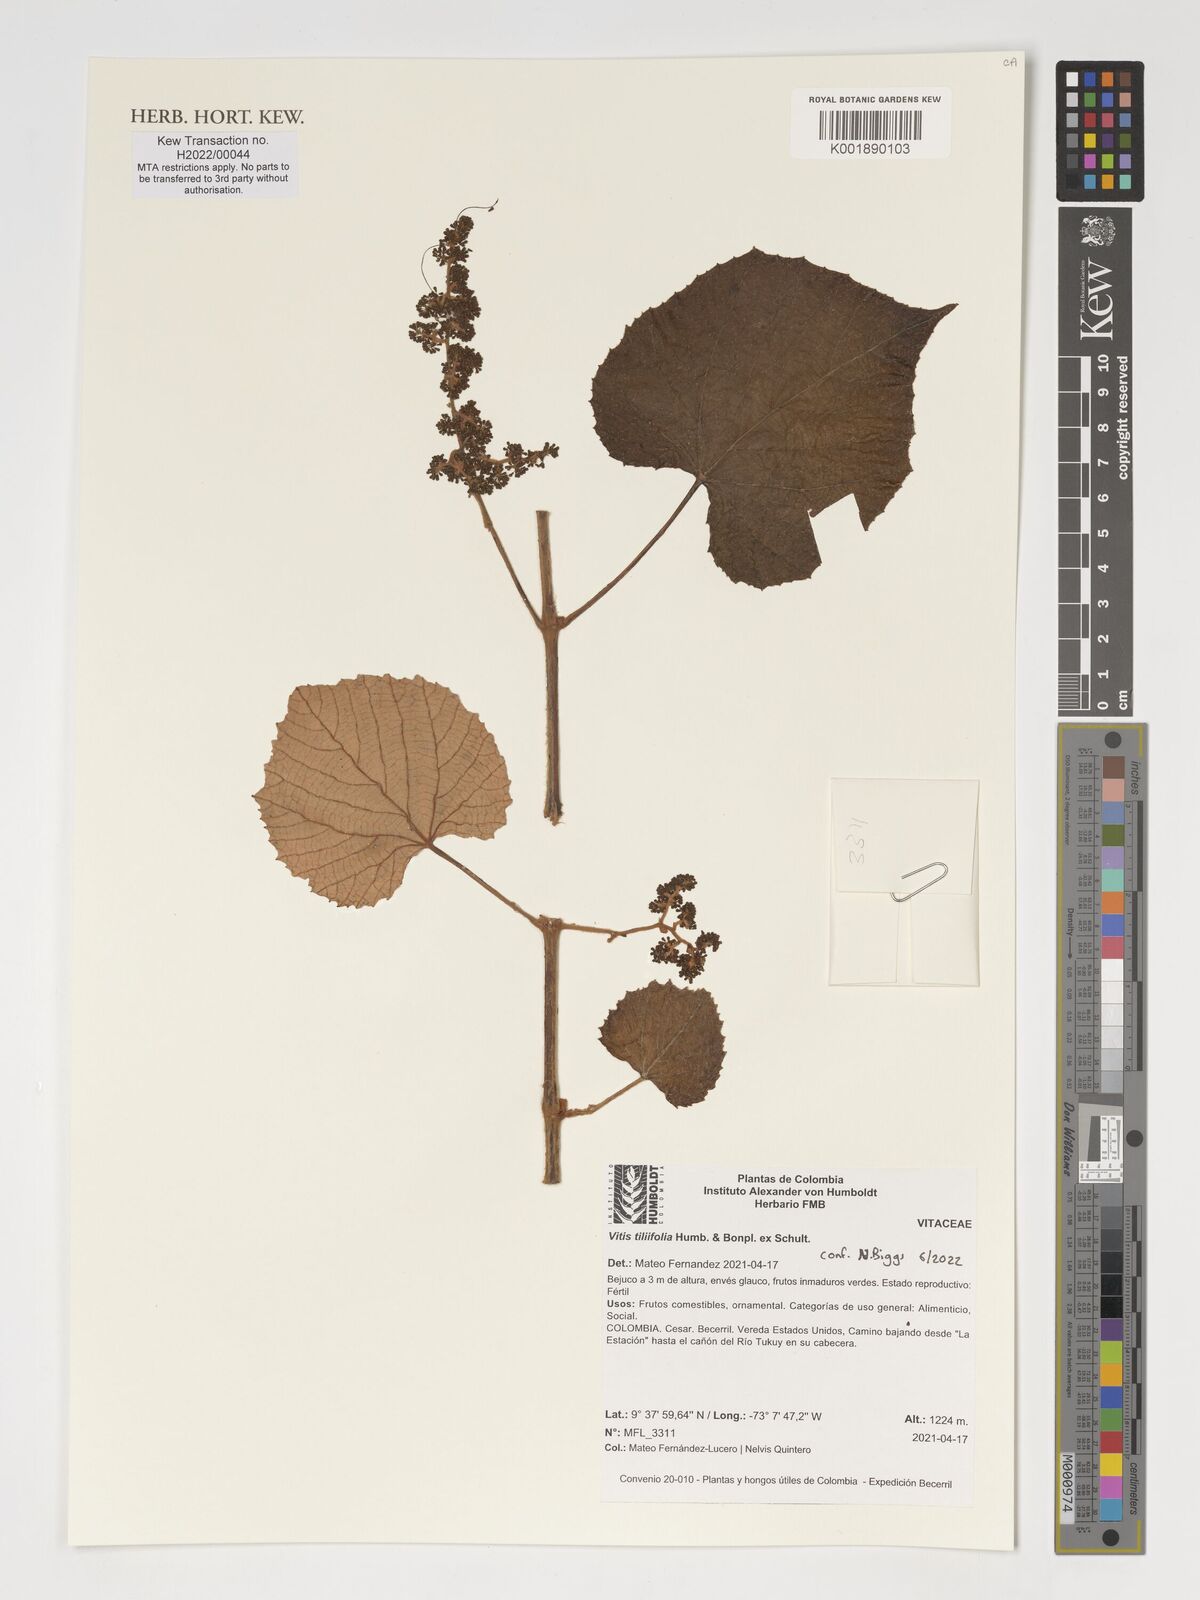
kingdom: Plantae
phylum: Tracheophyta
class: Magnoliopsida
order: Vitales
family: Vitaceae
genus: Vitis
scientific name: Vitis tiliifolia
